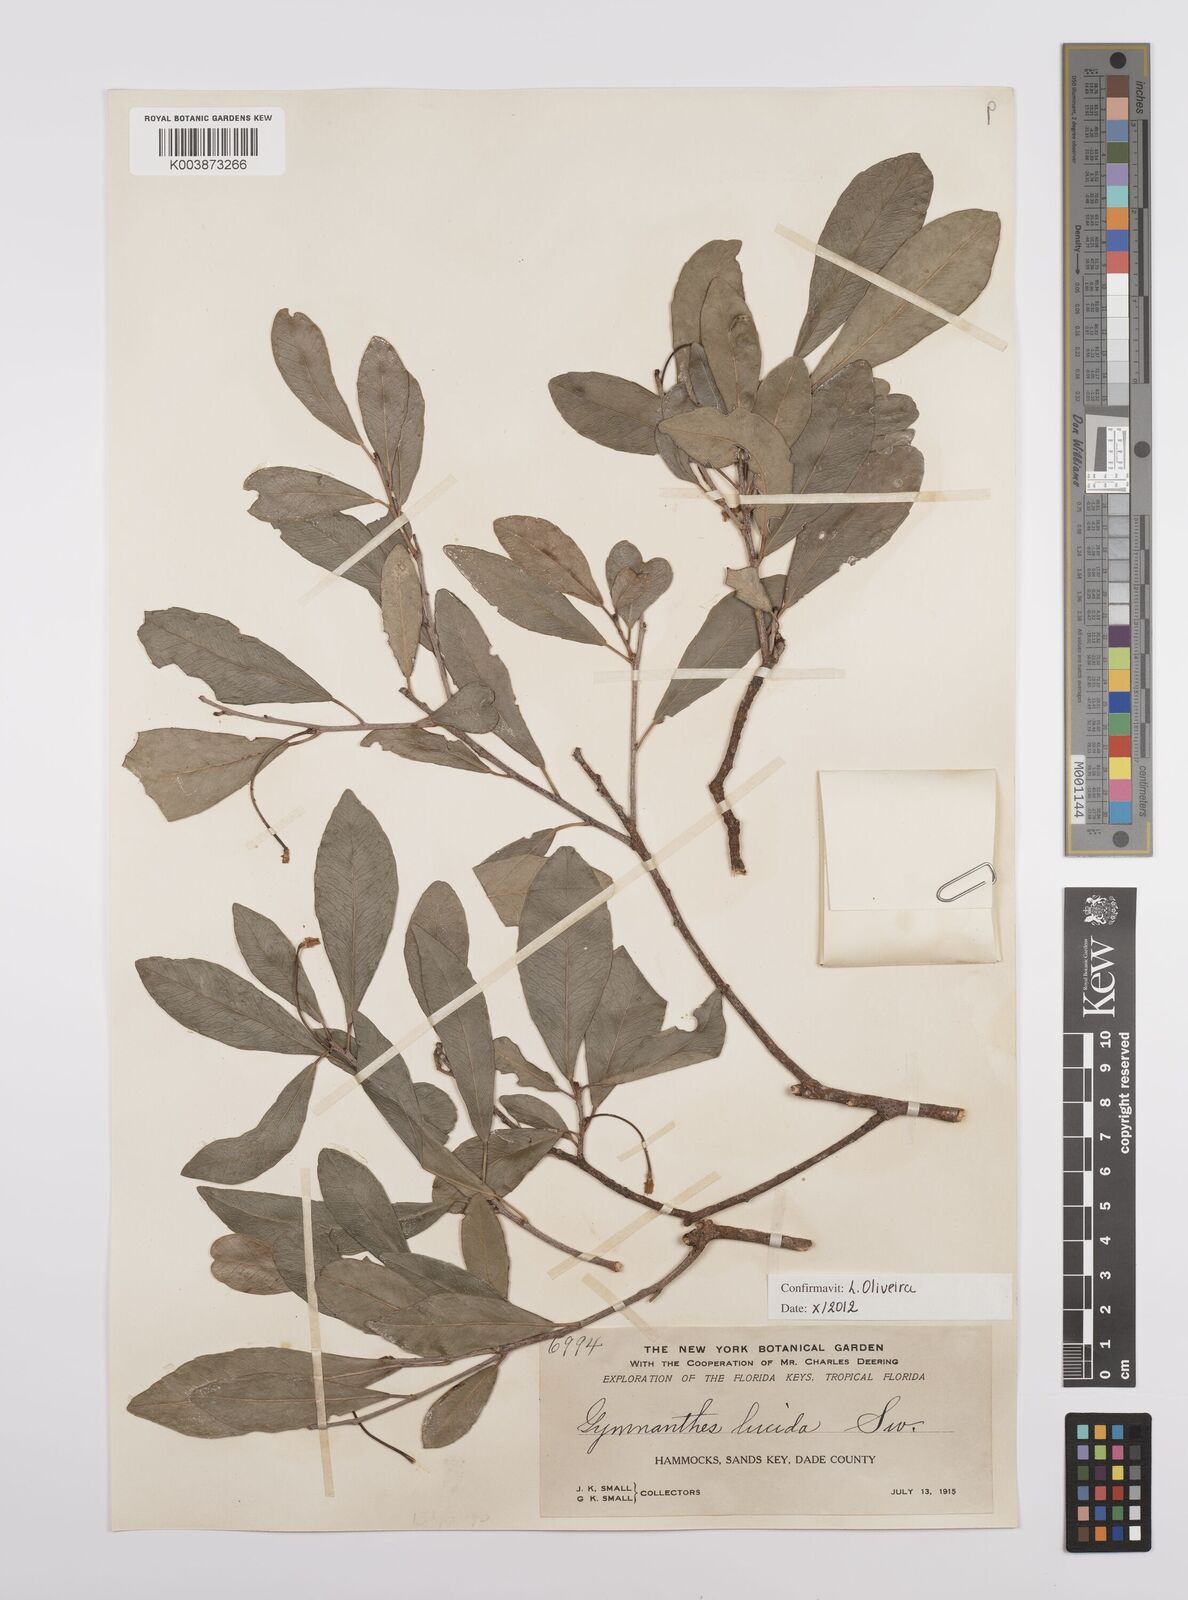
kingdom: Plantae
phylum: Tracheophyta
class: Magnoliopsida
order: Malpighiales
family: Euphorbiaceae
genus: Gymnanthes
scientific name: Gymnanthes lucida
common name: Oysterwood
